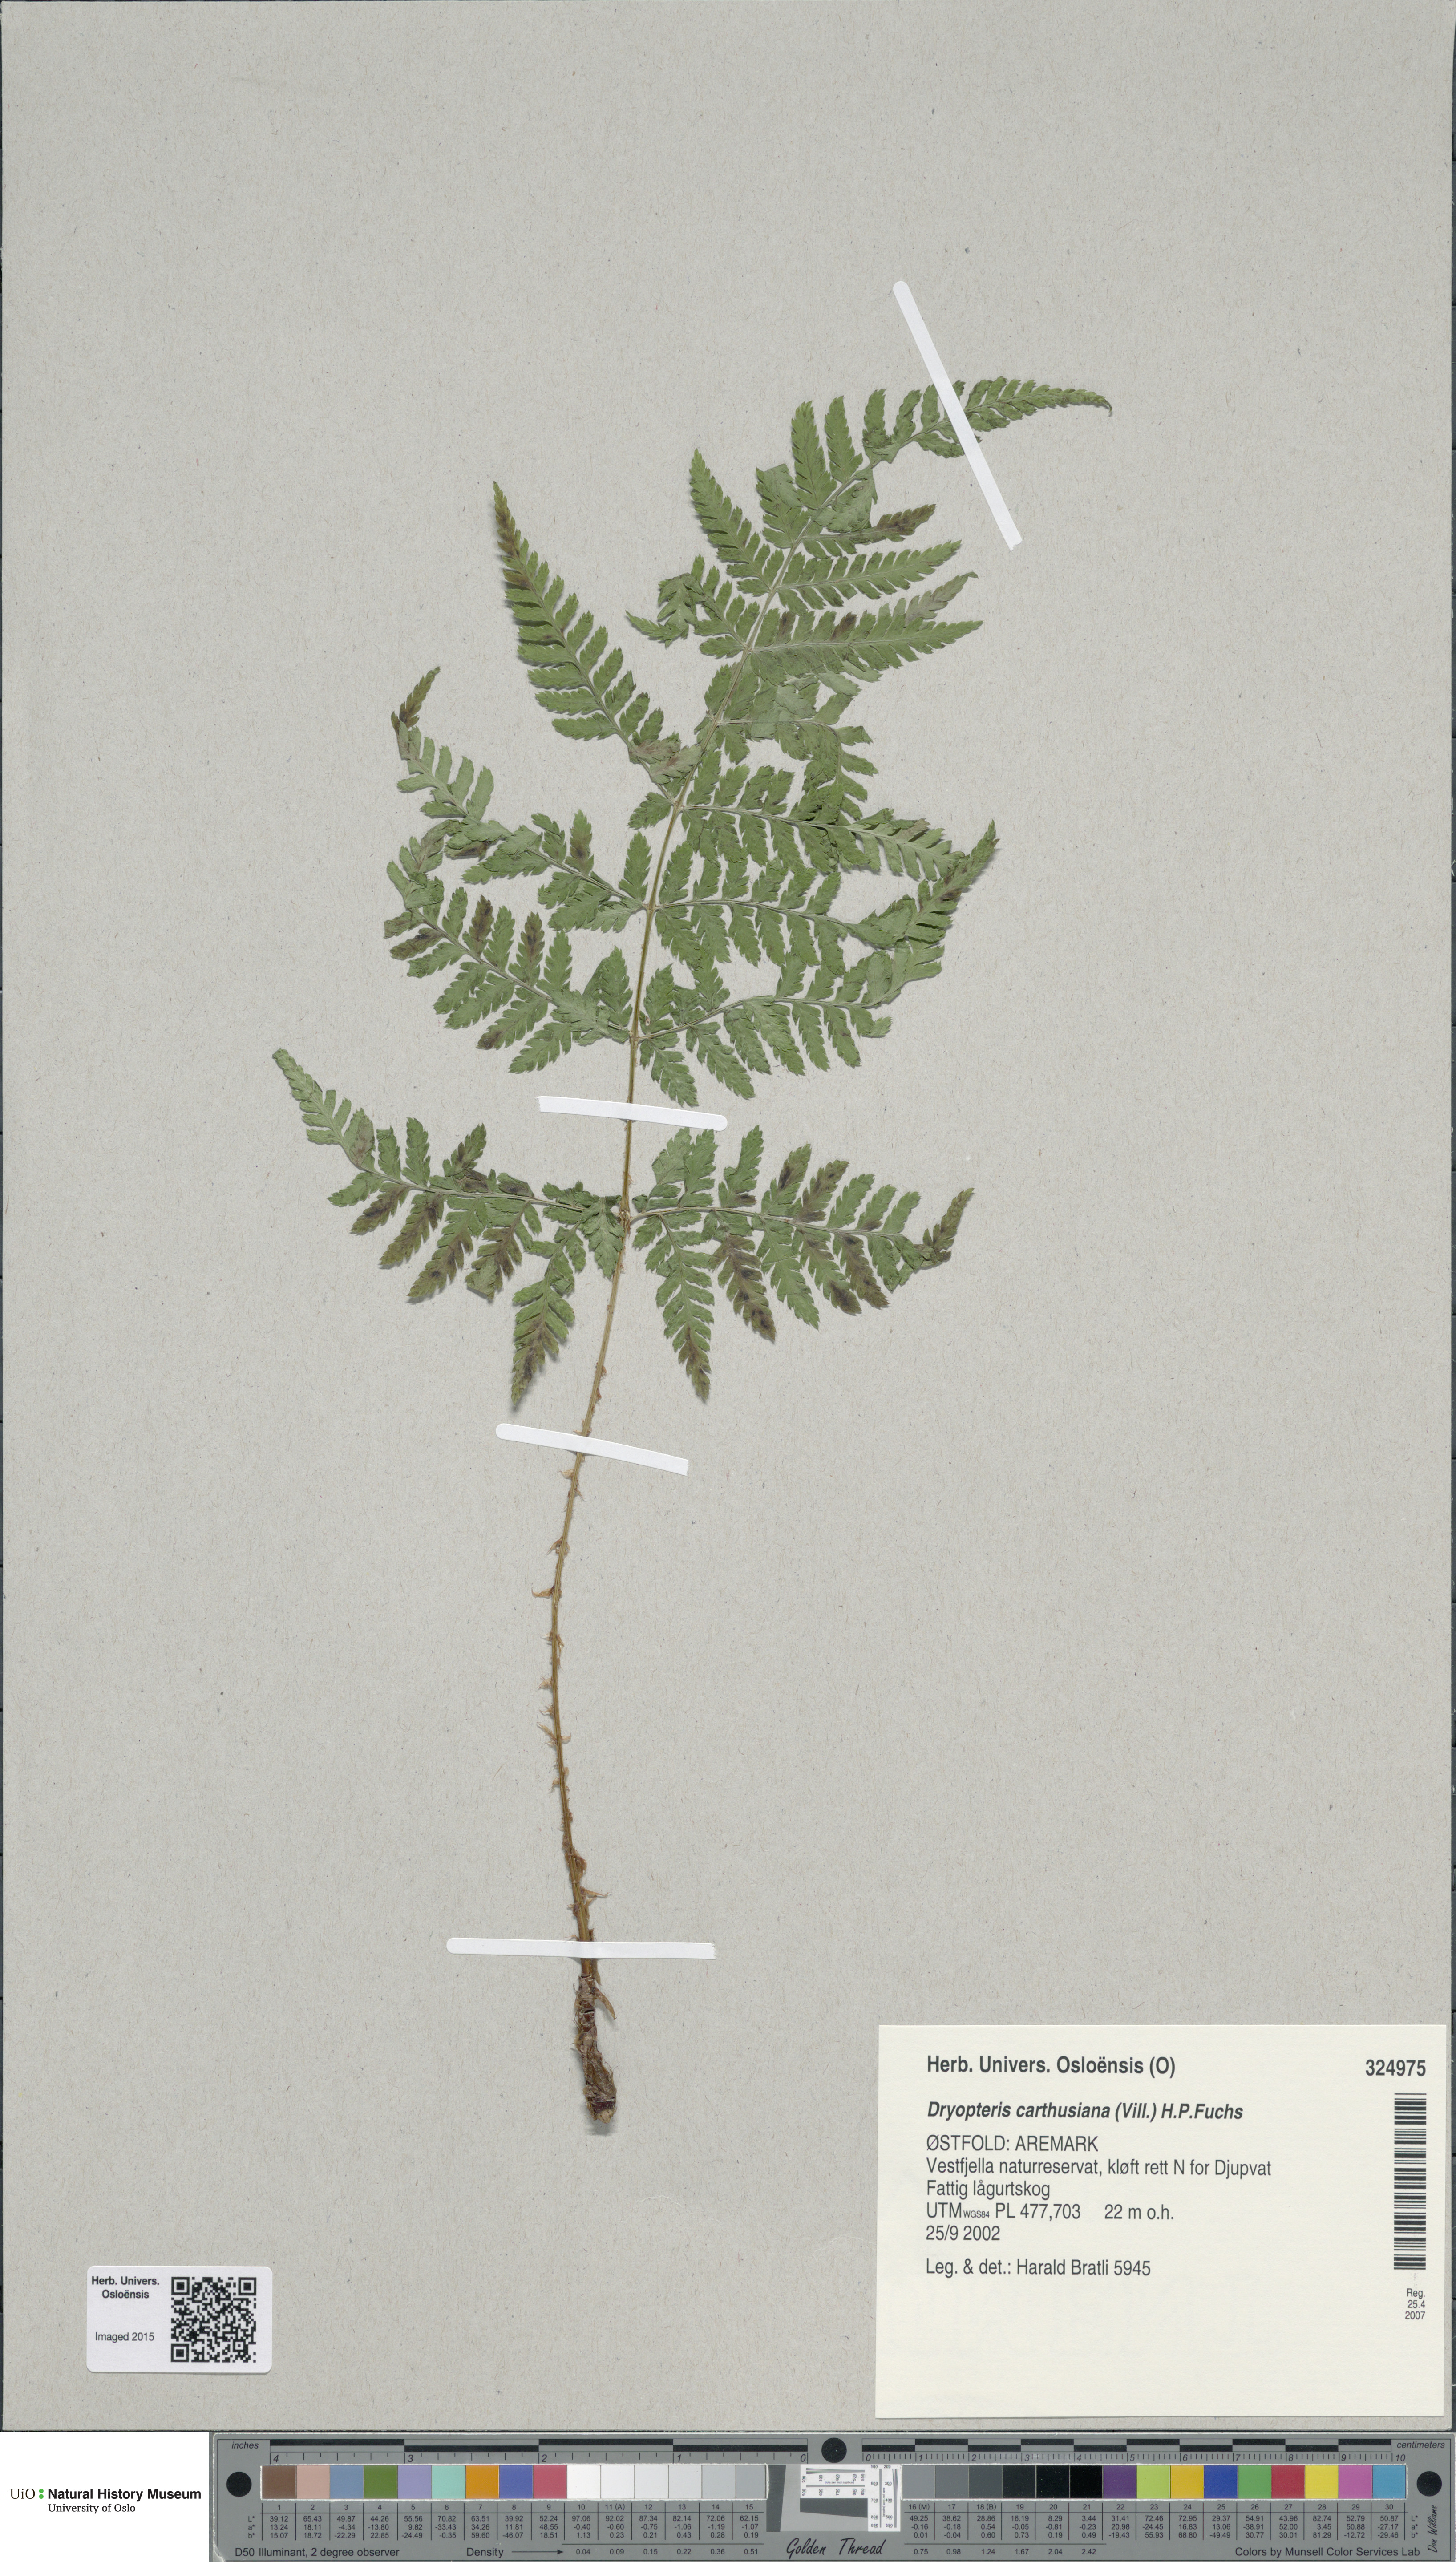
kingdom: Plantae
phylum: Tracheophyta
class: Polypodiopsida
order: Polypodiales
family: Dryopteridaceae
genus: Dryopteris
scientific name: Dryopteris carthusiana
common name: Narrow buckler-fern
